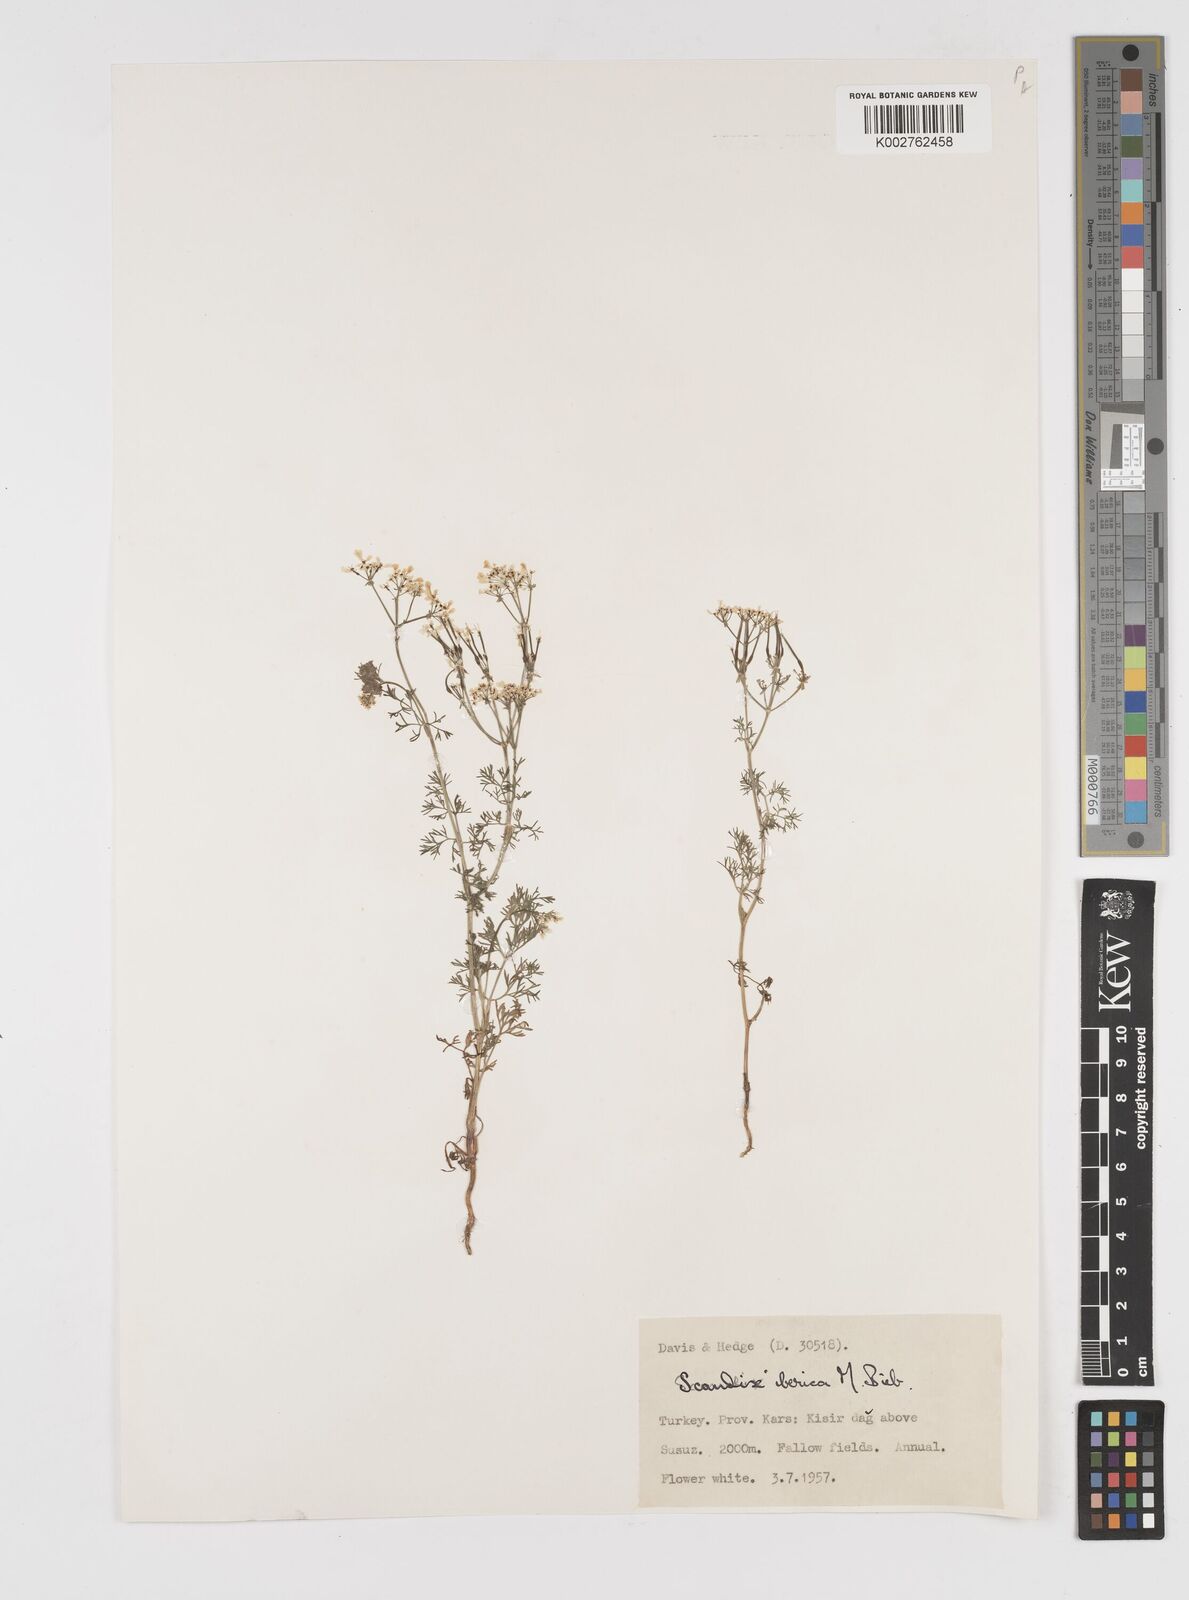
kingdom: Plantae
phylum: Tracheophyta
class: Magnoliopsida
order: Apiales
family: Apiaceae
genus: Scandix
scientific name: Scandix iberica
